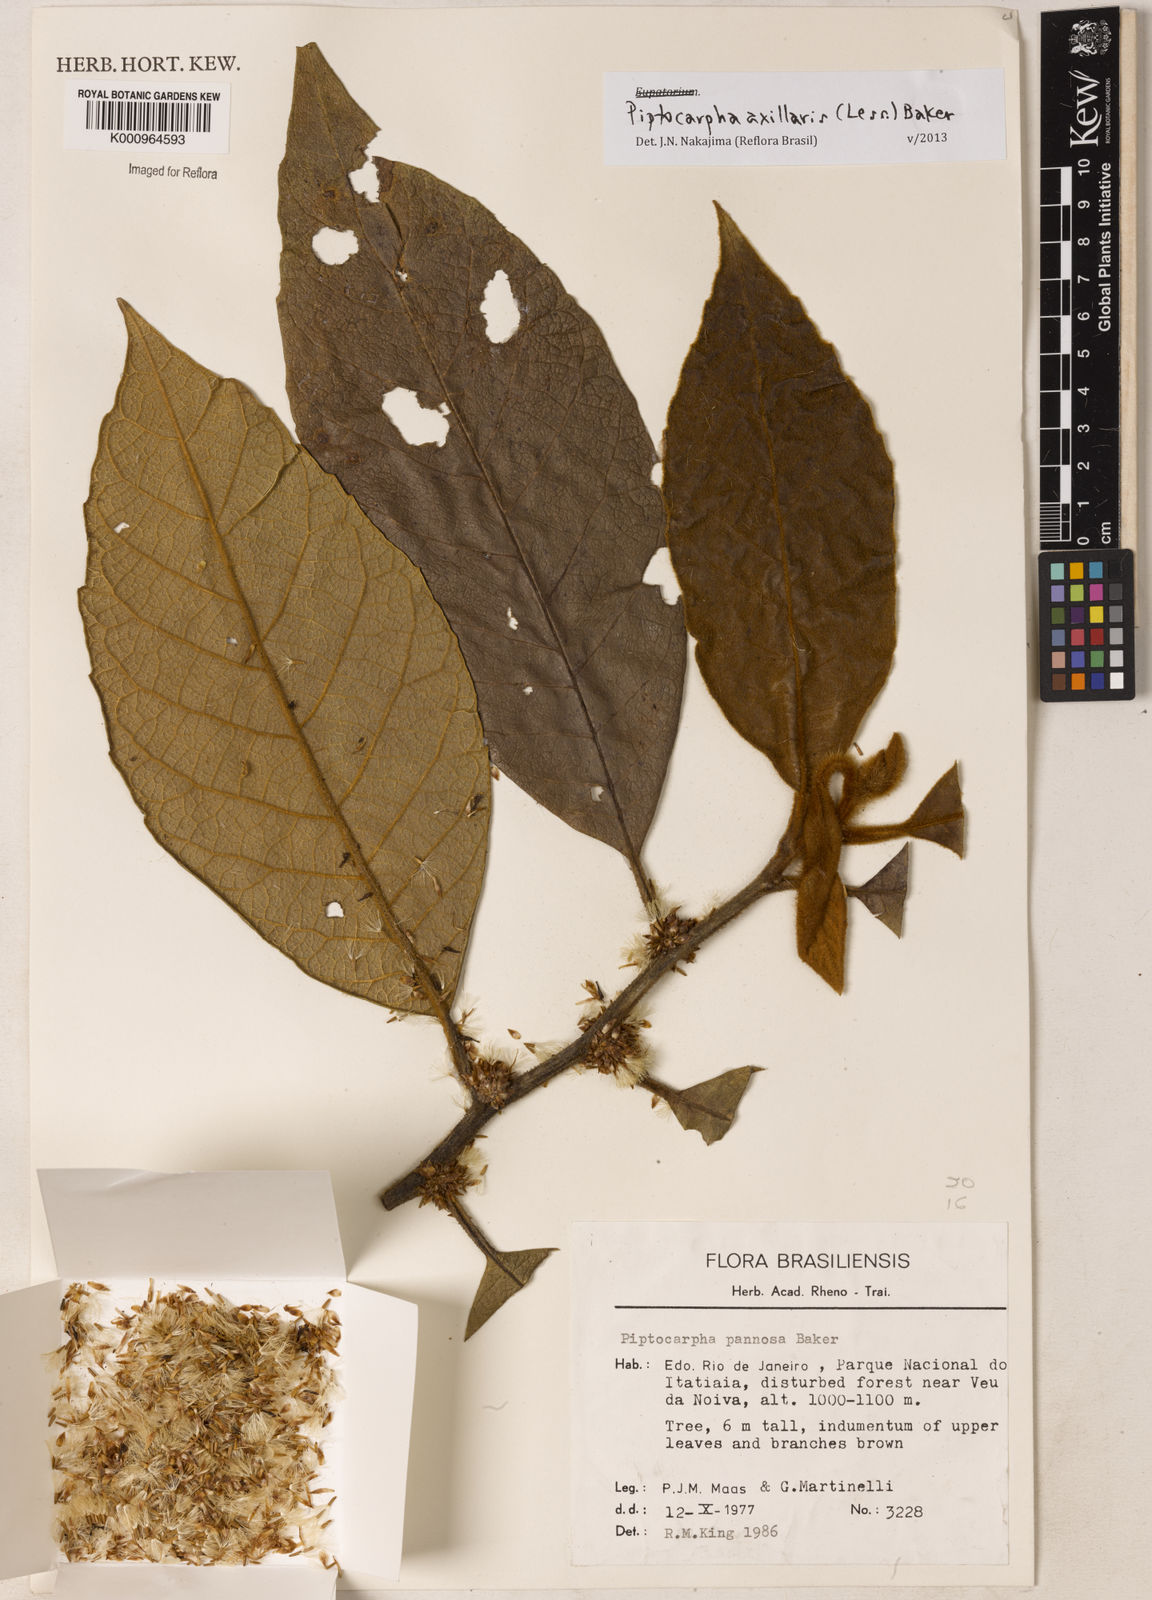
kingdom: Plantae
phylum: Tracheophyta
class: Magnoliopsida
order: Asterales
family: Asteraceae
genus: Piptocarpha
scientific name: Piptocarpha axillaris
